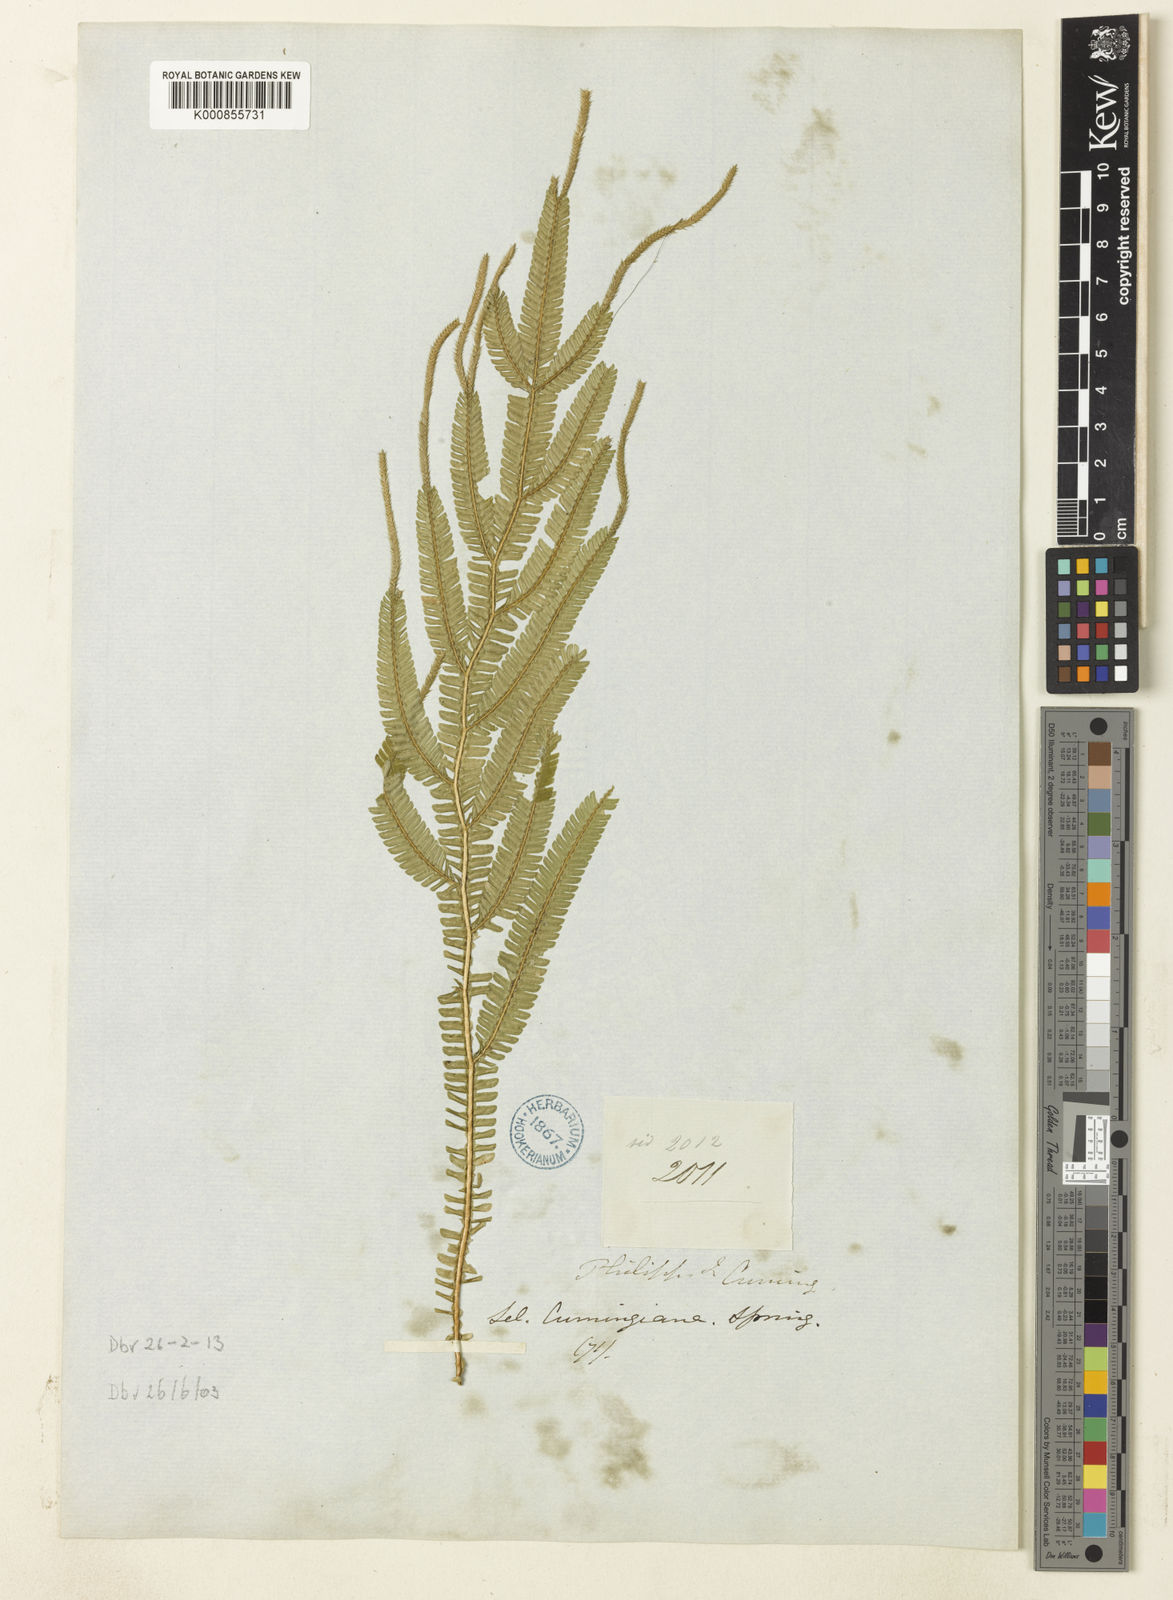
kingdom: Plantae
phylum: Tracheophyta
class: Lycopodiopsida
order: Selaginellales
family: Selaginellaceae
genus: Selaginella
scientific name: Selaginella cumingiana
